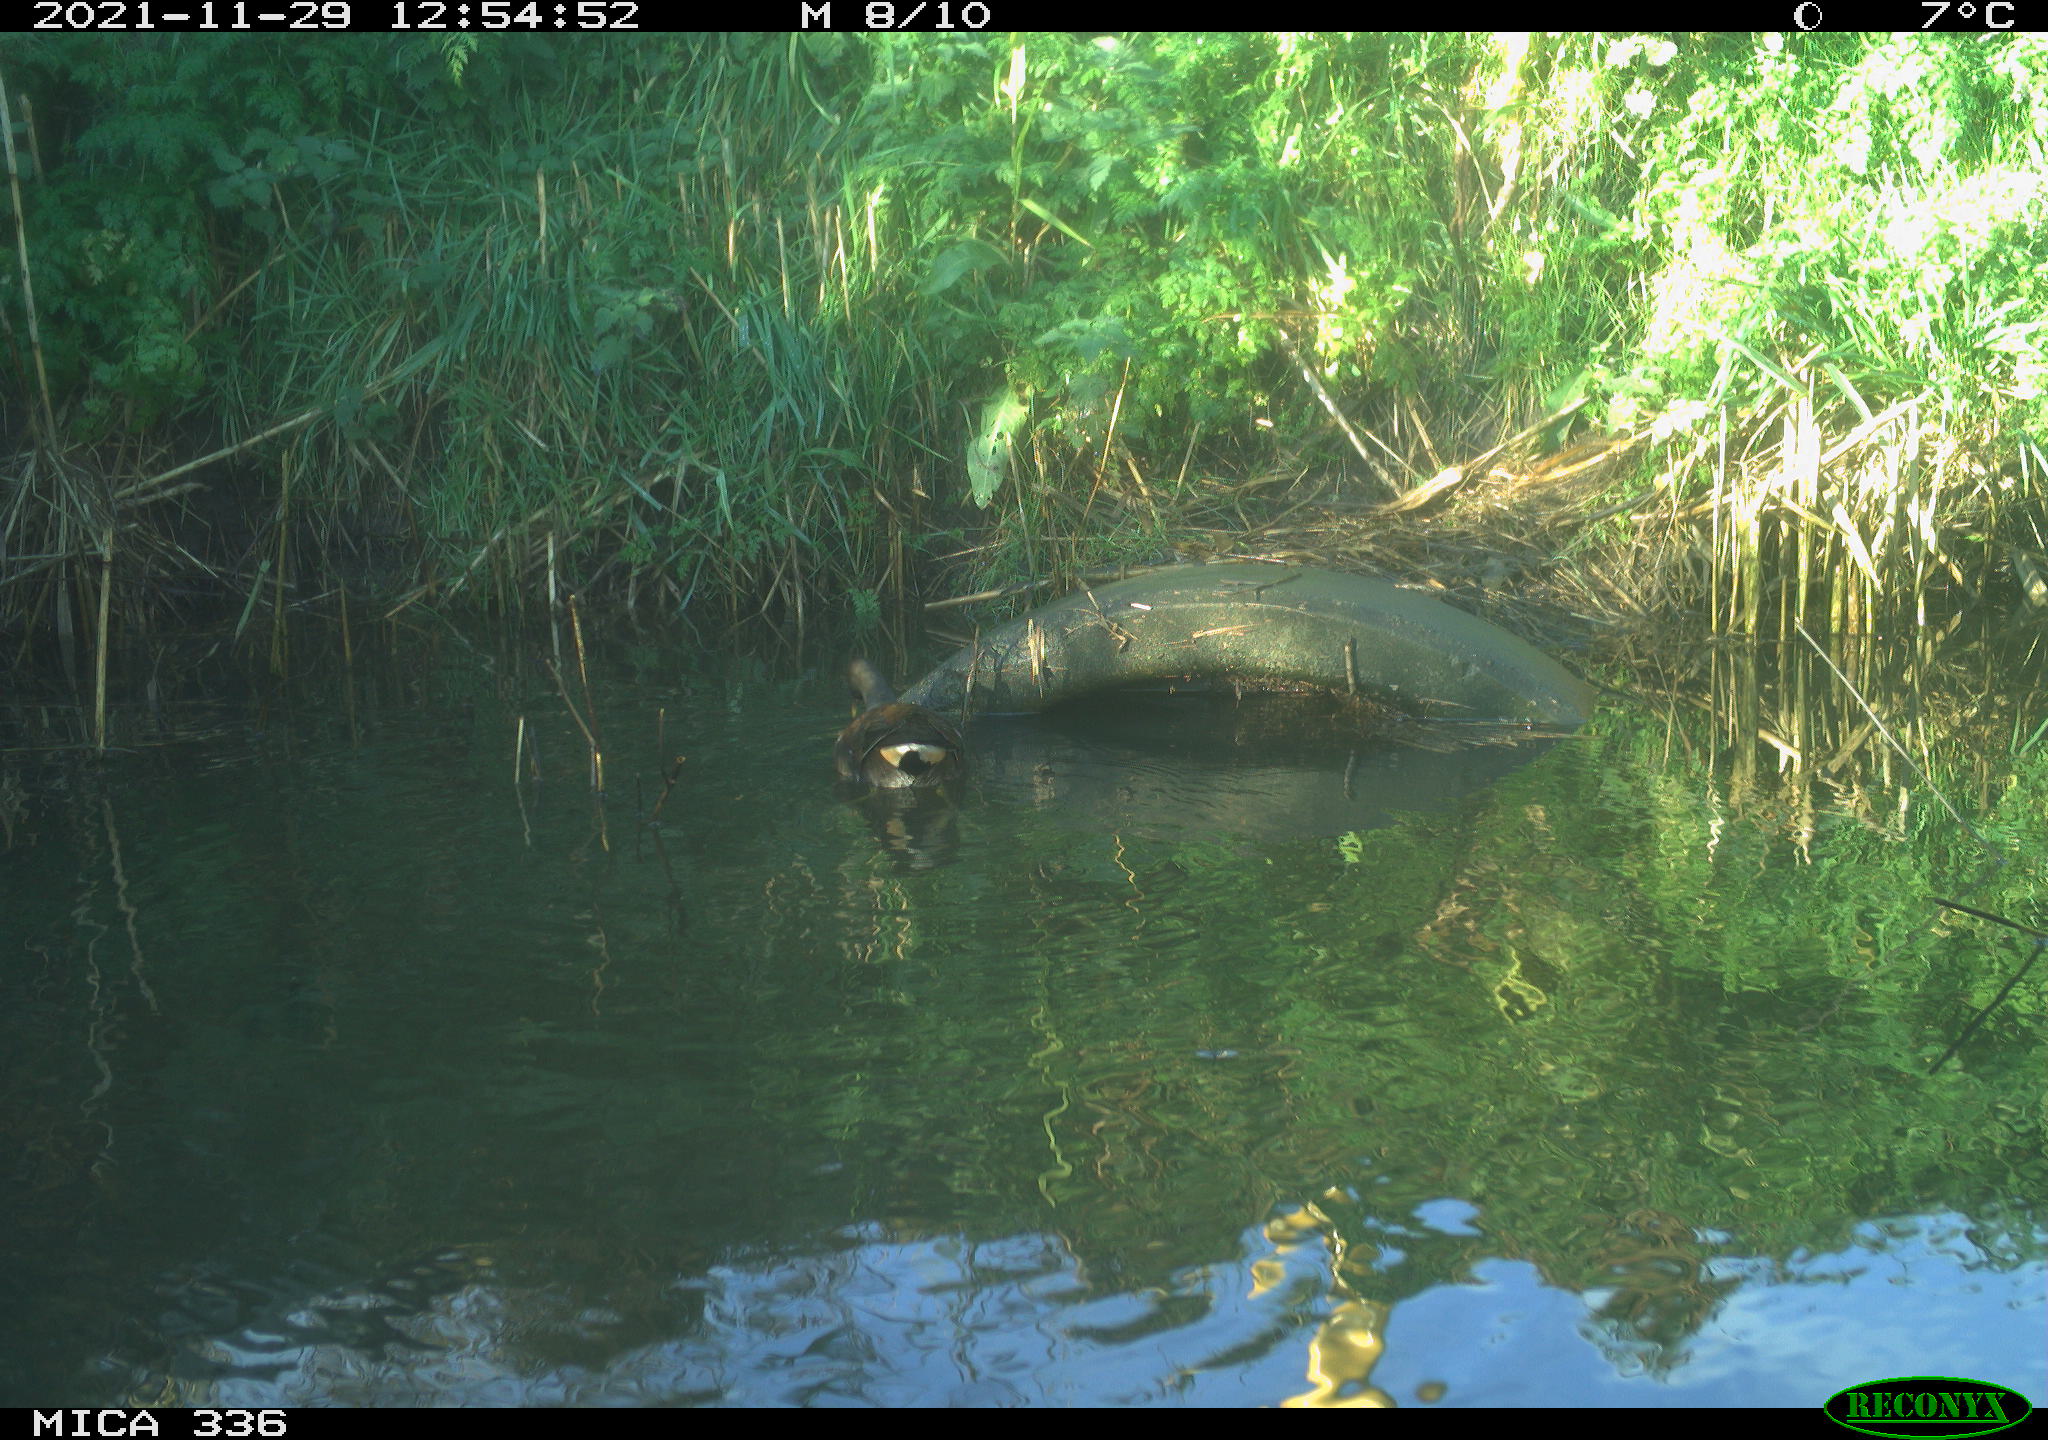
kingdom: Animalia
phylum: Chordata
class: Aves
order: Gruiformes
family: Rallidae
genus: Gallinula
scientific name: Gallinula chloropus
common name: Common moorhen
